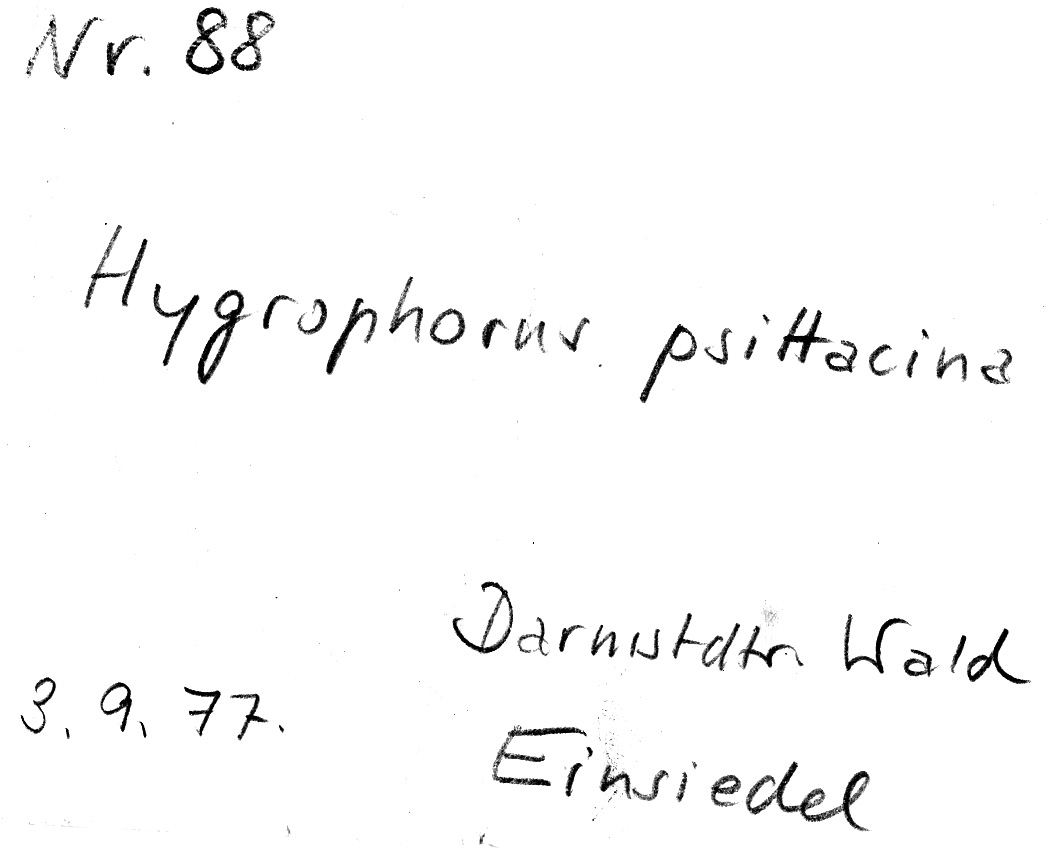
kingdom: Fungi
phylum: Basidiomycota
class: Agaricomycetes
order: Agaricales
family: Hygrophoraceae
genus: Gliophorus
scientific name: Gliophorus psittacinus
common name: Parrot wax-cap
